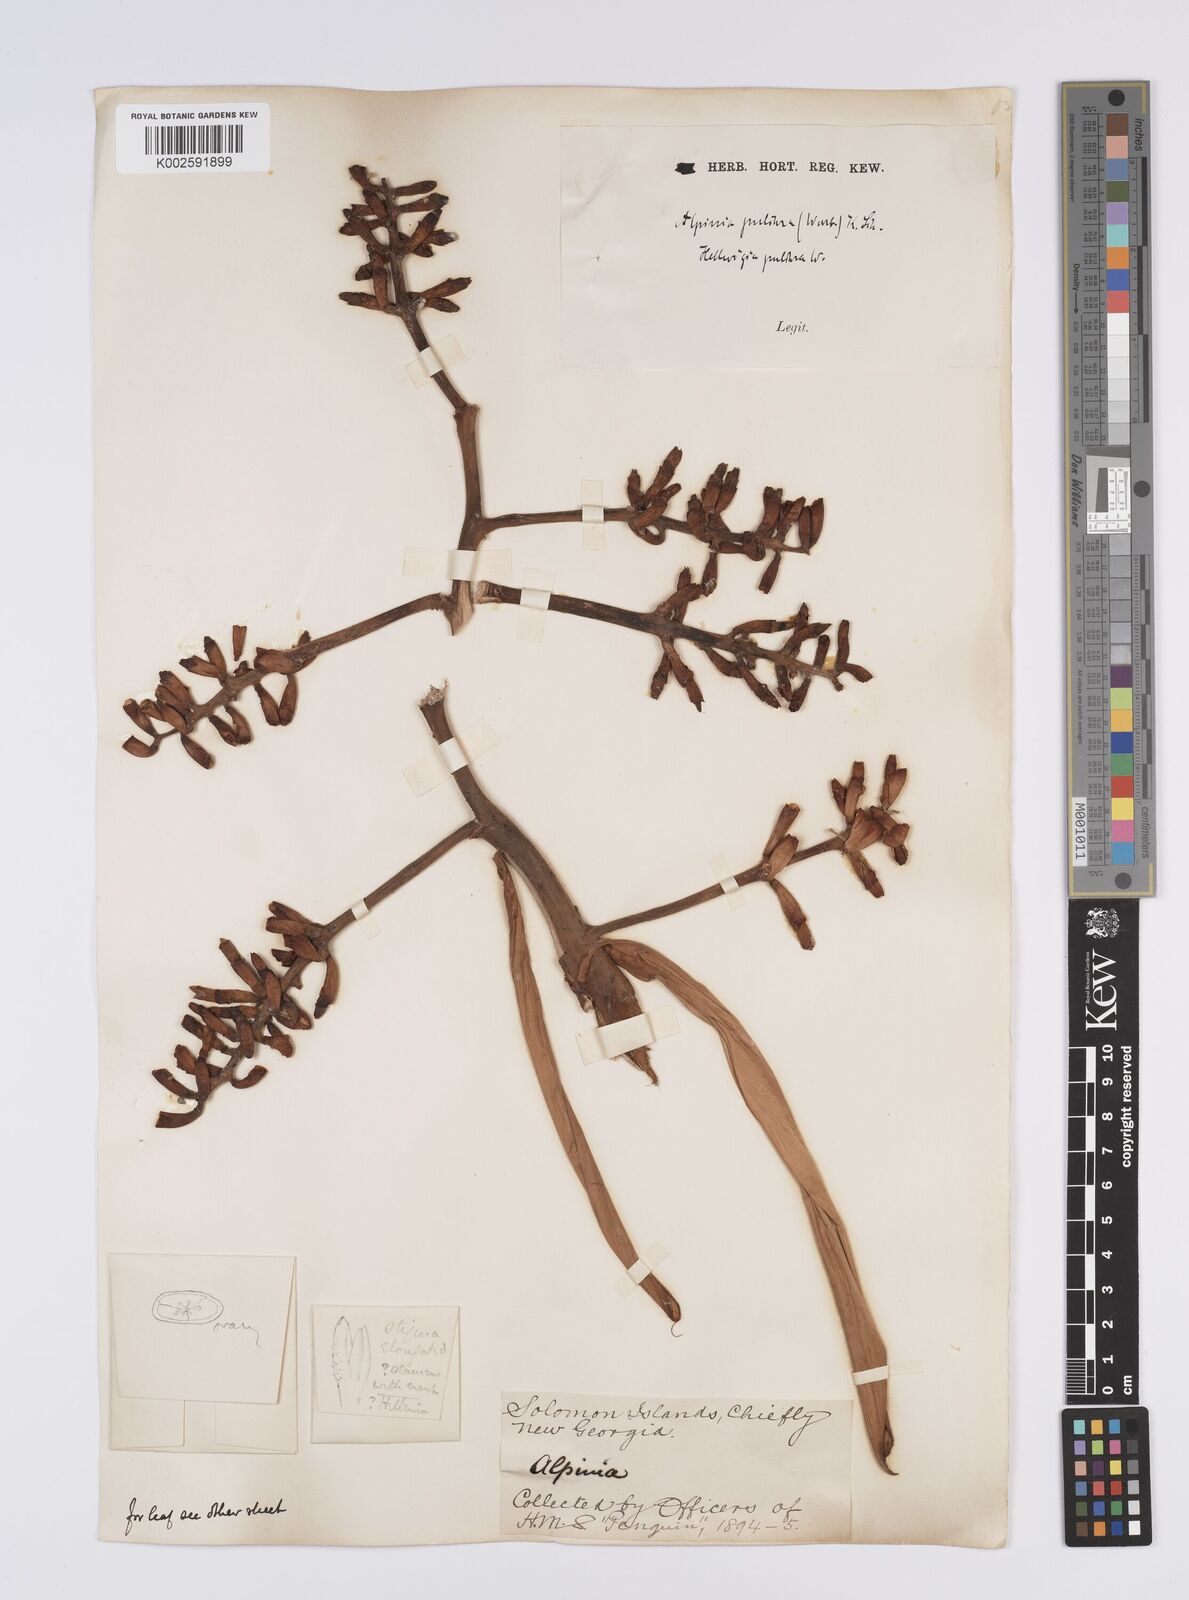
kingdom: Plantae
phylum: Tracheophyta
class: Liliopsida
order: Zingiberales
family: Zingiberaceae
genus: Alpinia
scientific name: Alpinia pulchra
